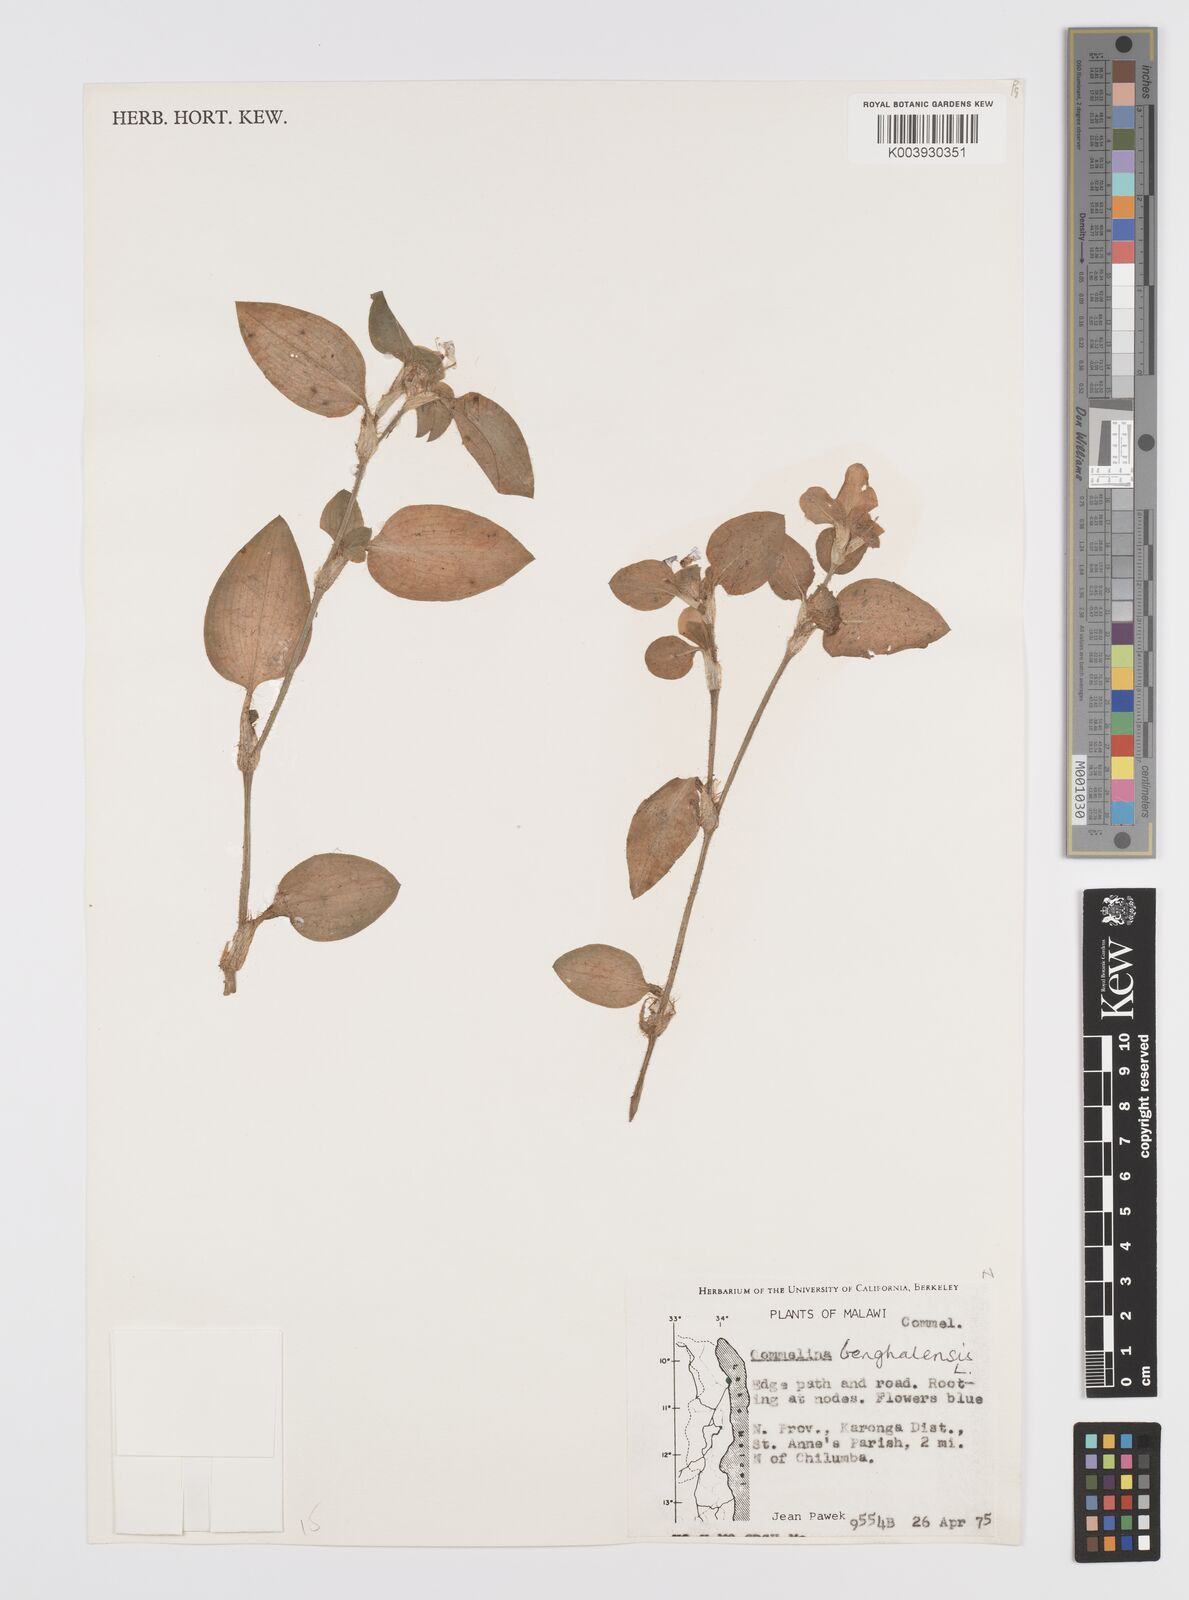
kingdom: Plantae
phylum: Tracheophyta
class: Liliopsida
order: Commelinales
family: Commelinaceae
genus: Commelina
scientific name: Commelina benghalensis
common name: Jio
